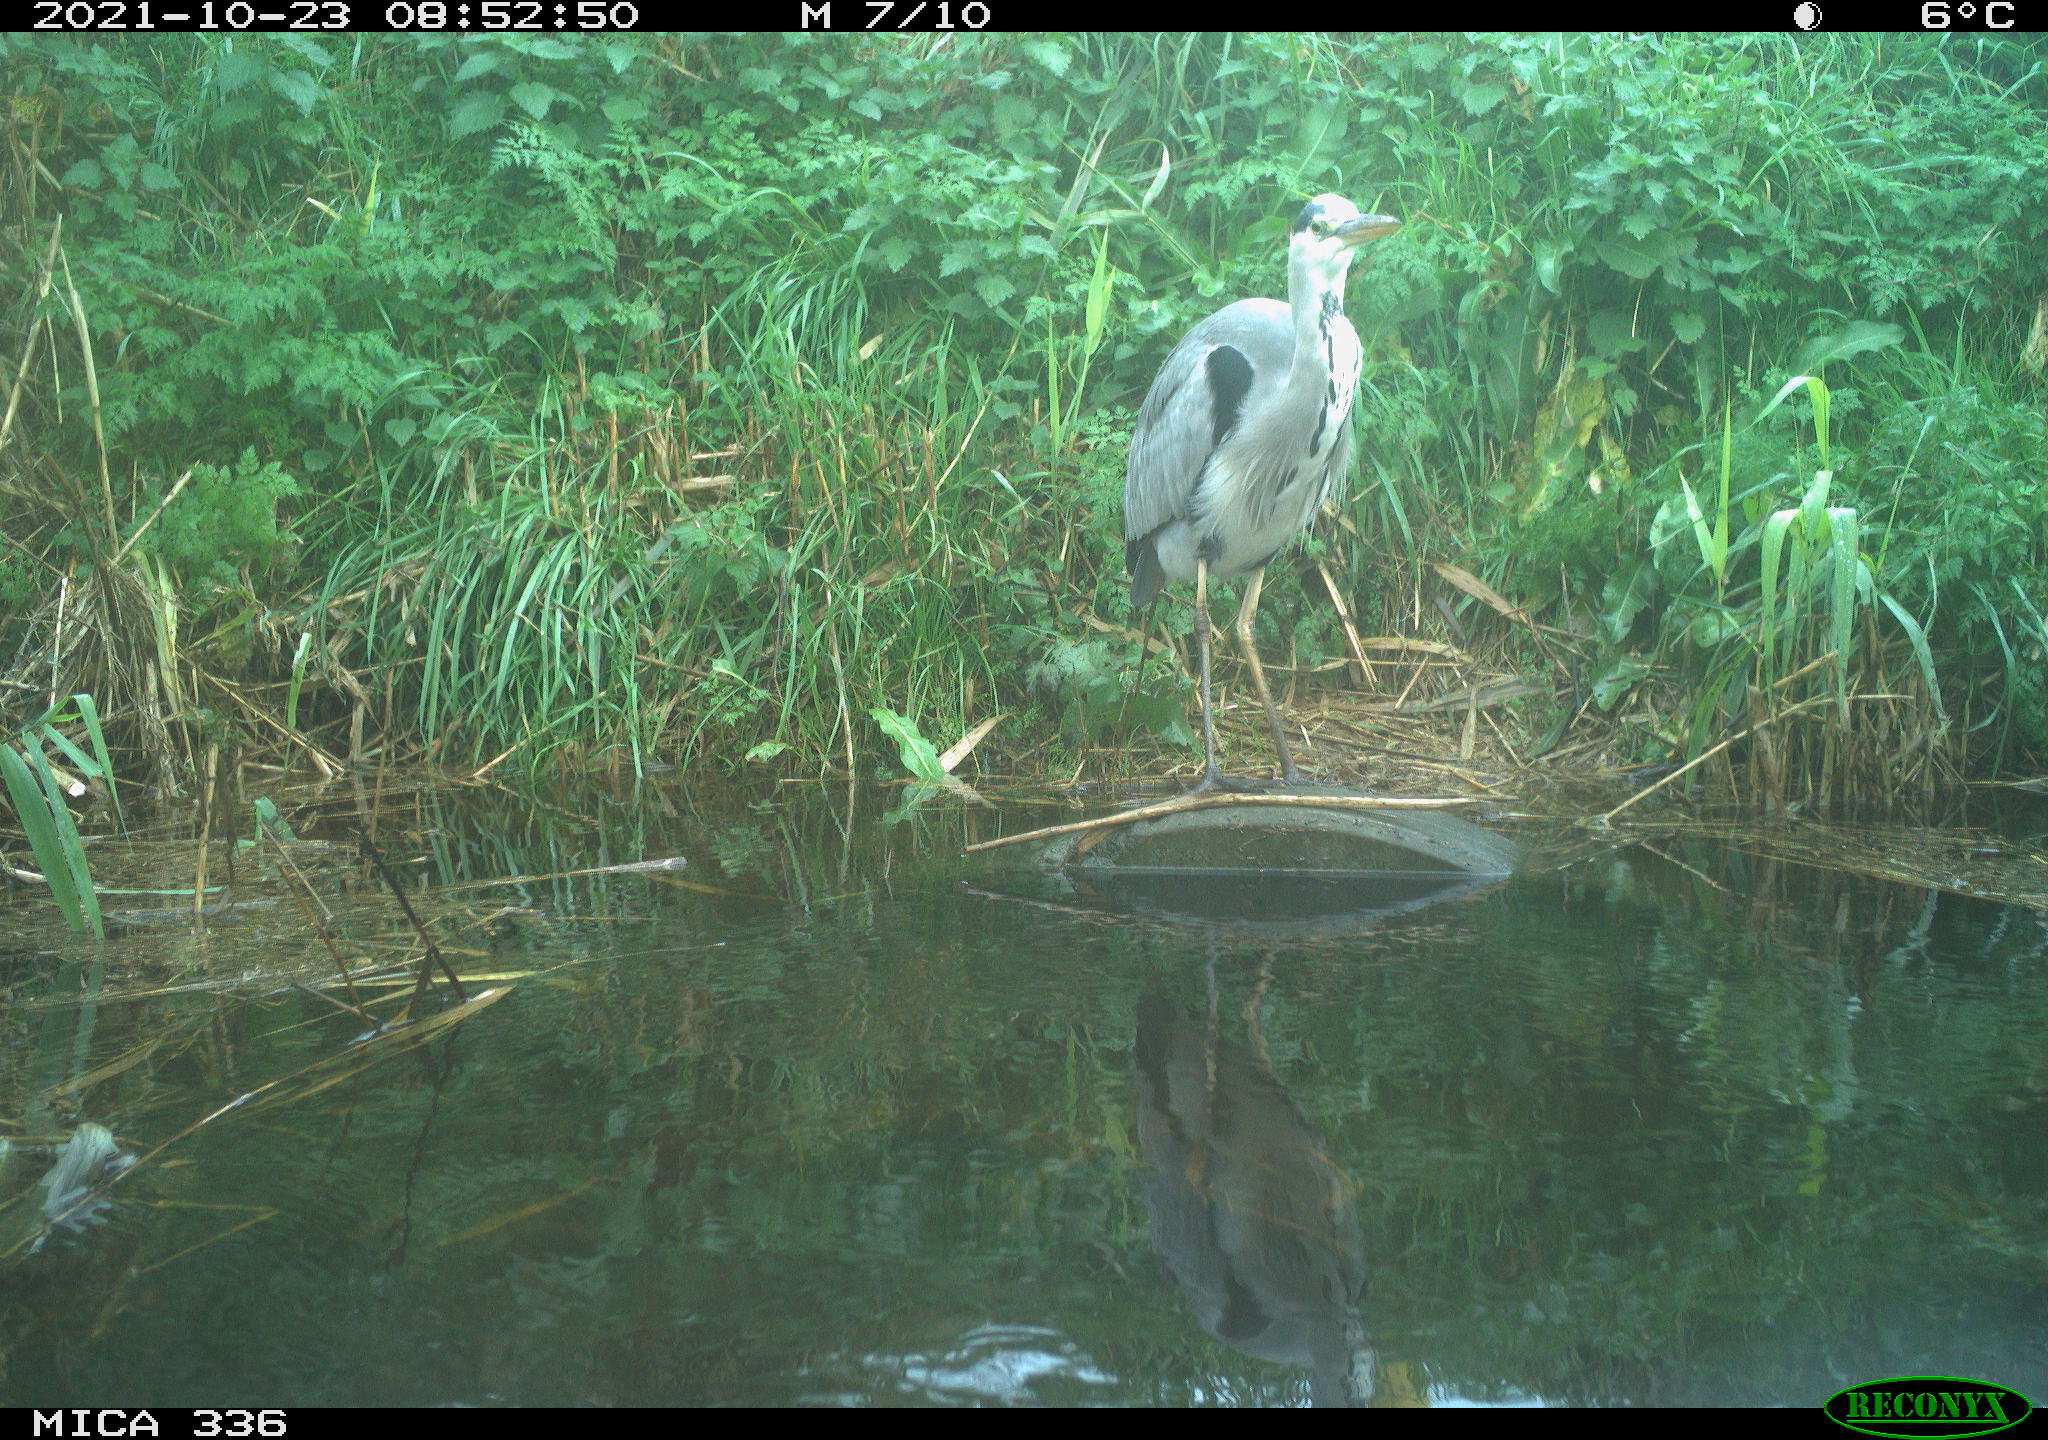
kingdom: Animalia
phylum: Chordata
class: Aves
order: Pelecaniformes
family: Ardeidae
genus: Ardea
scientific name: Ardea cinerea
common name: Grey heron
